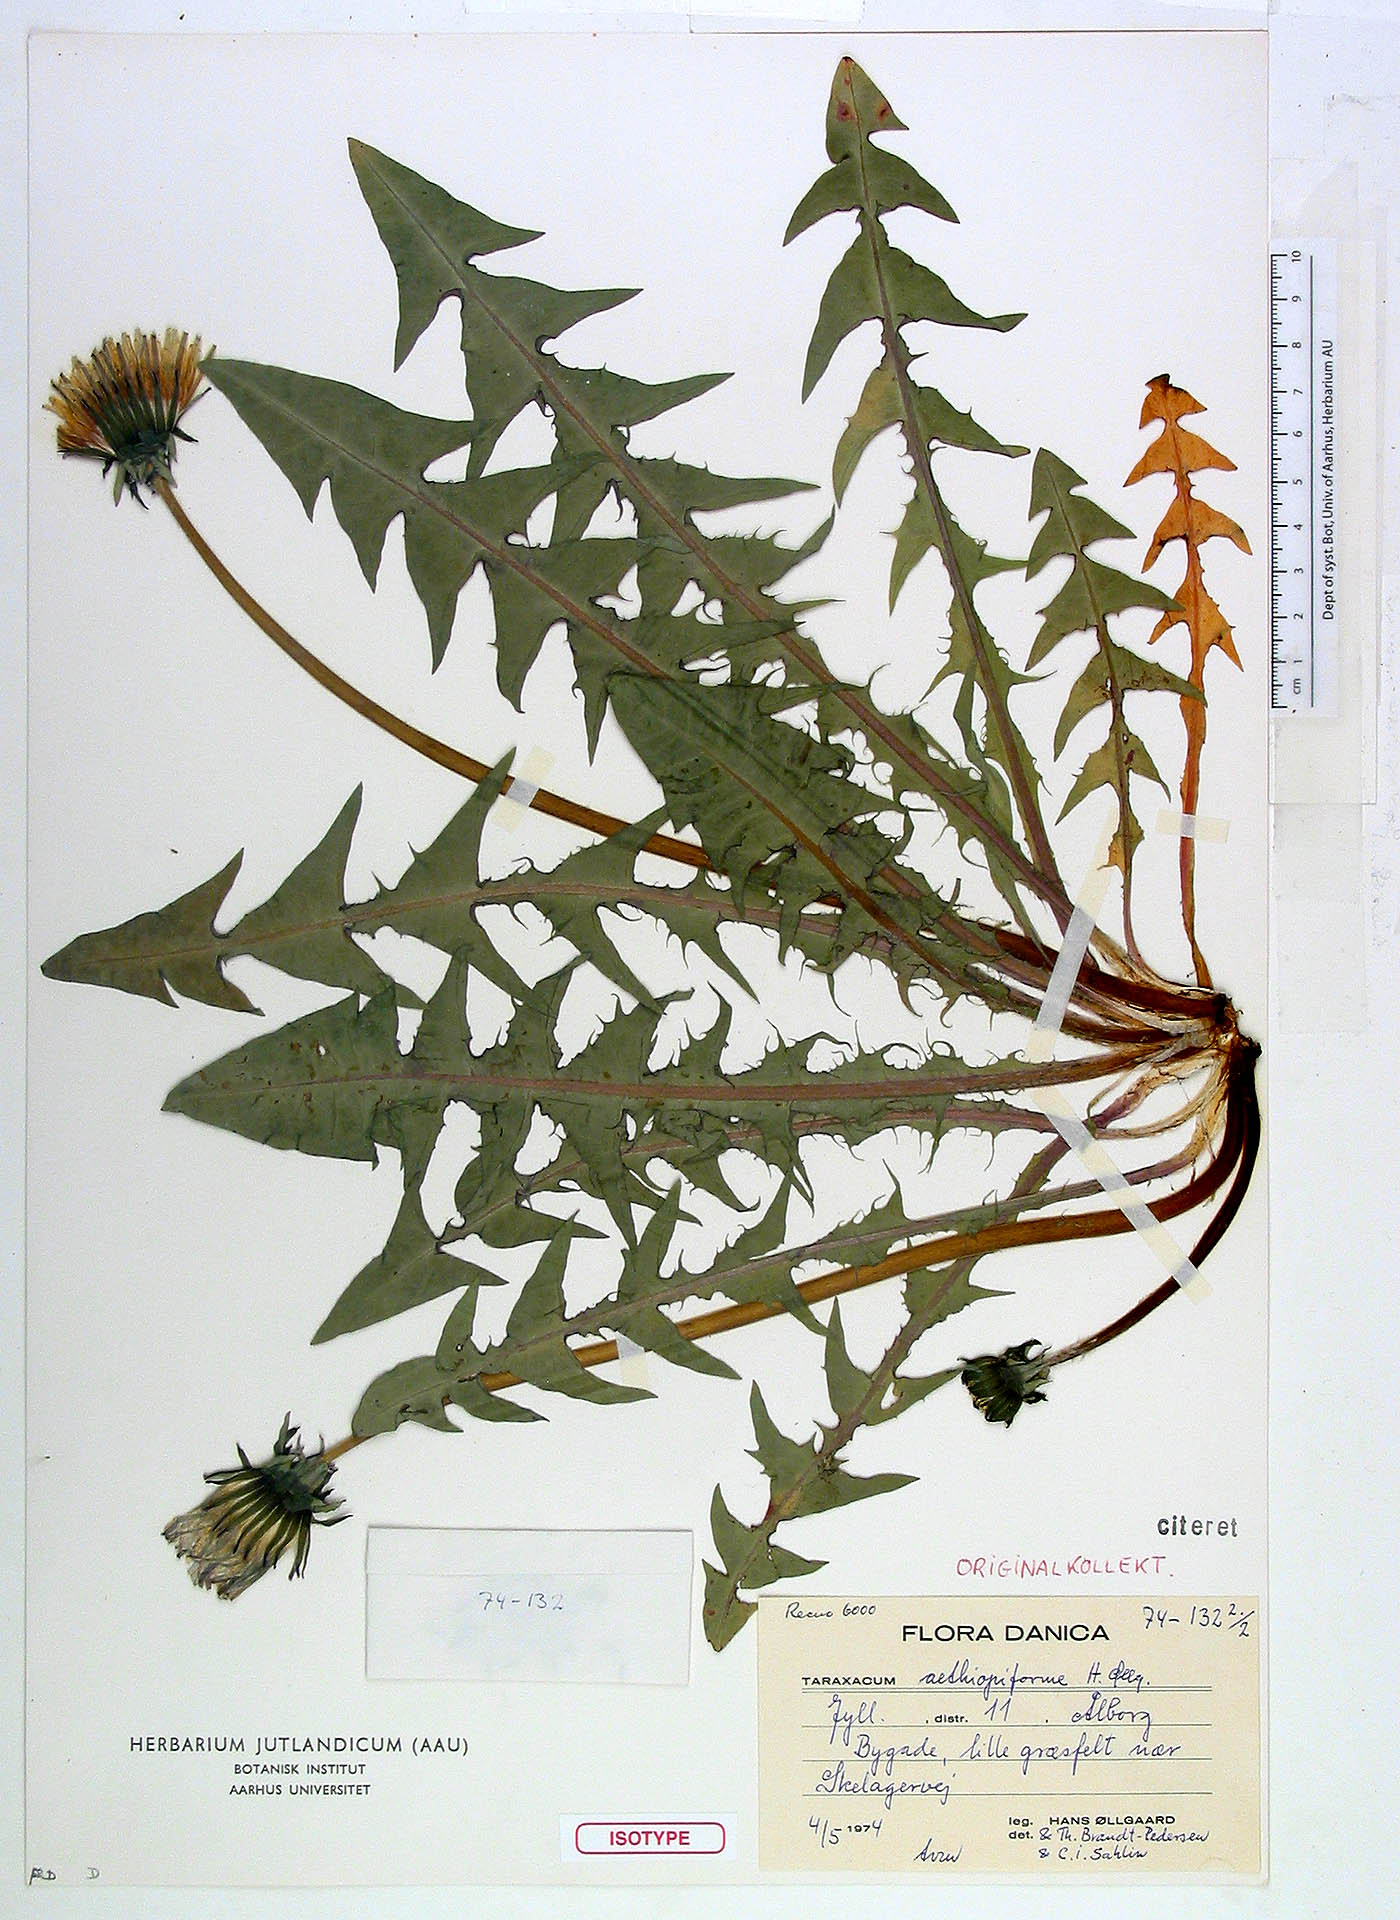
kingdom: Plantae
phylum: Tracheophyta
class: Magnoliopsida
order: Asterales
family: Asteraceae
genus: Taraxacum
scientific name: Taraxacum acutisectum
